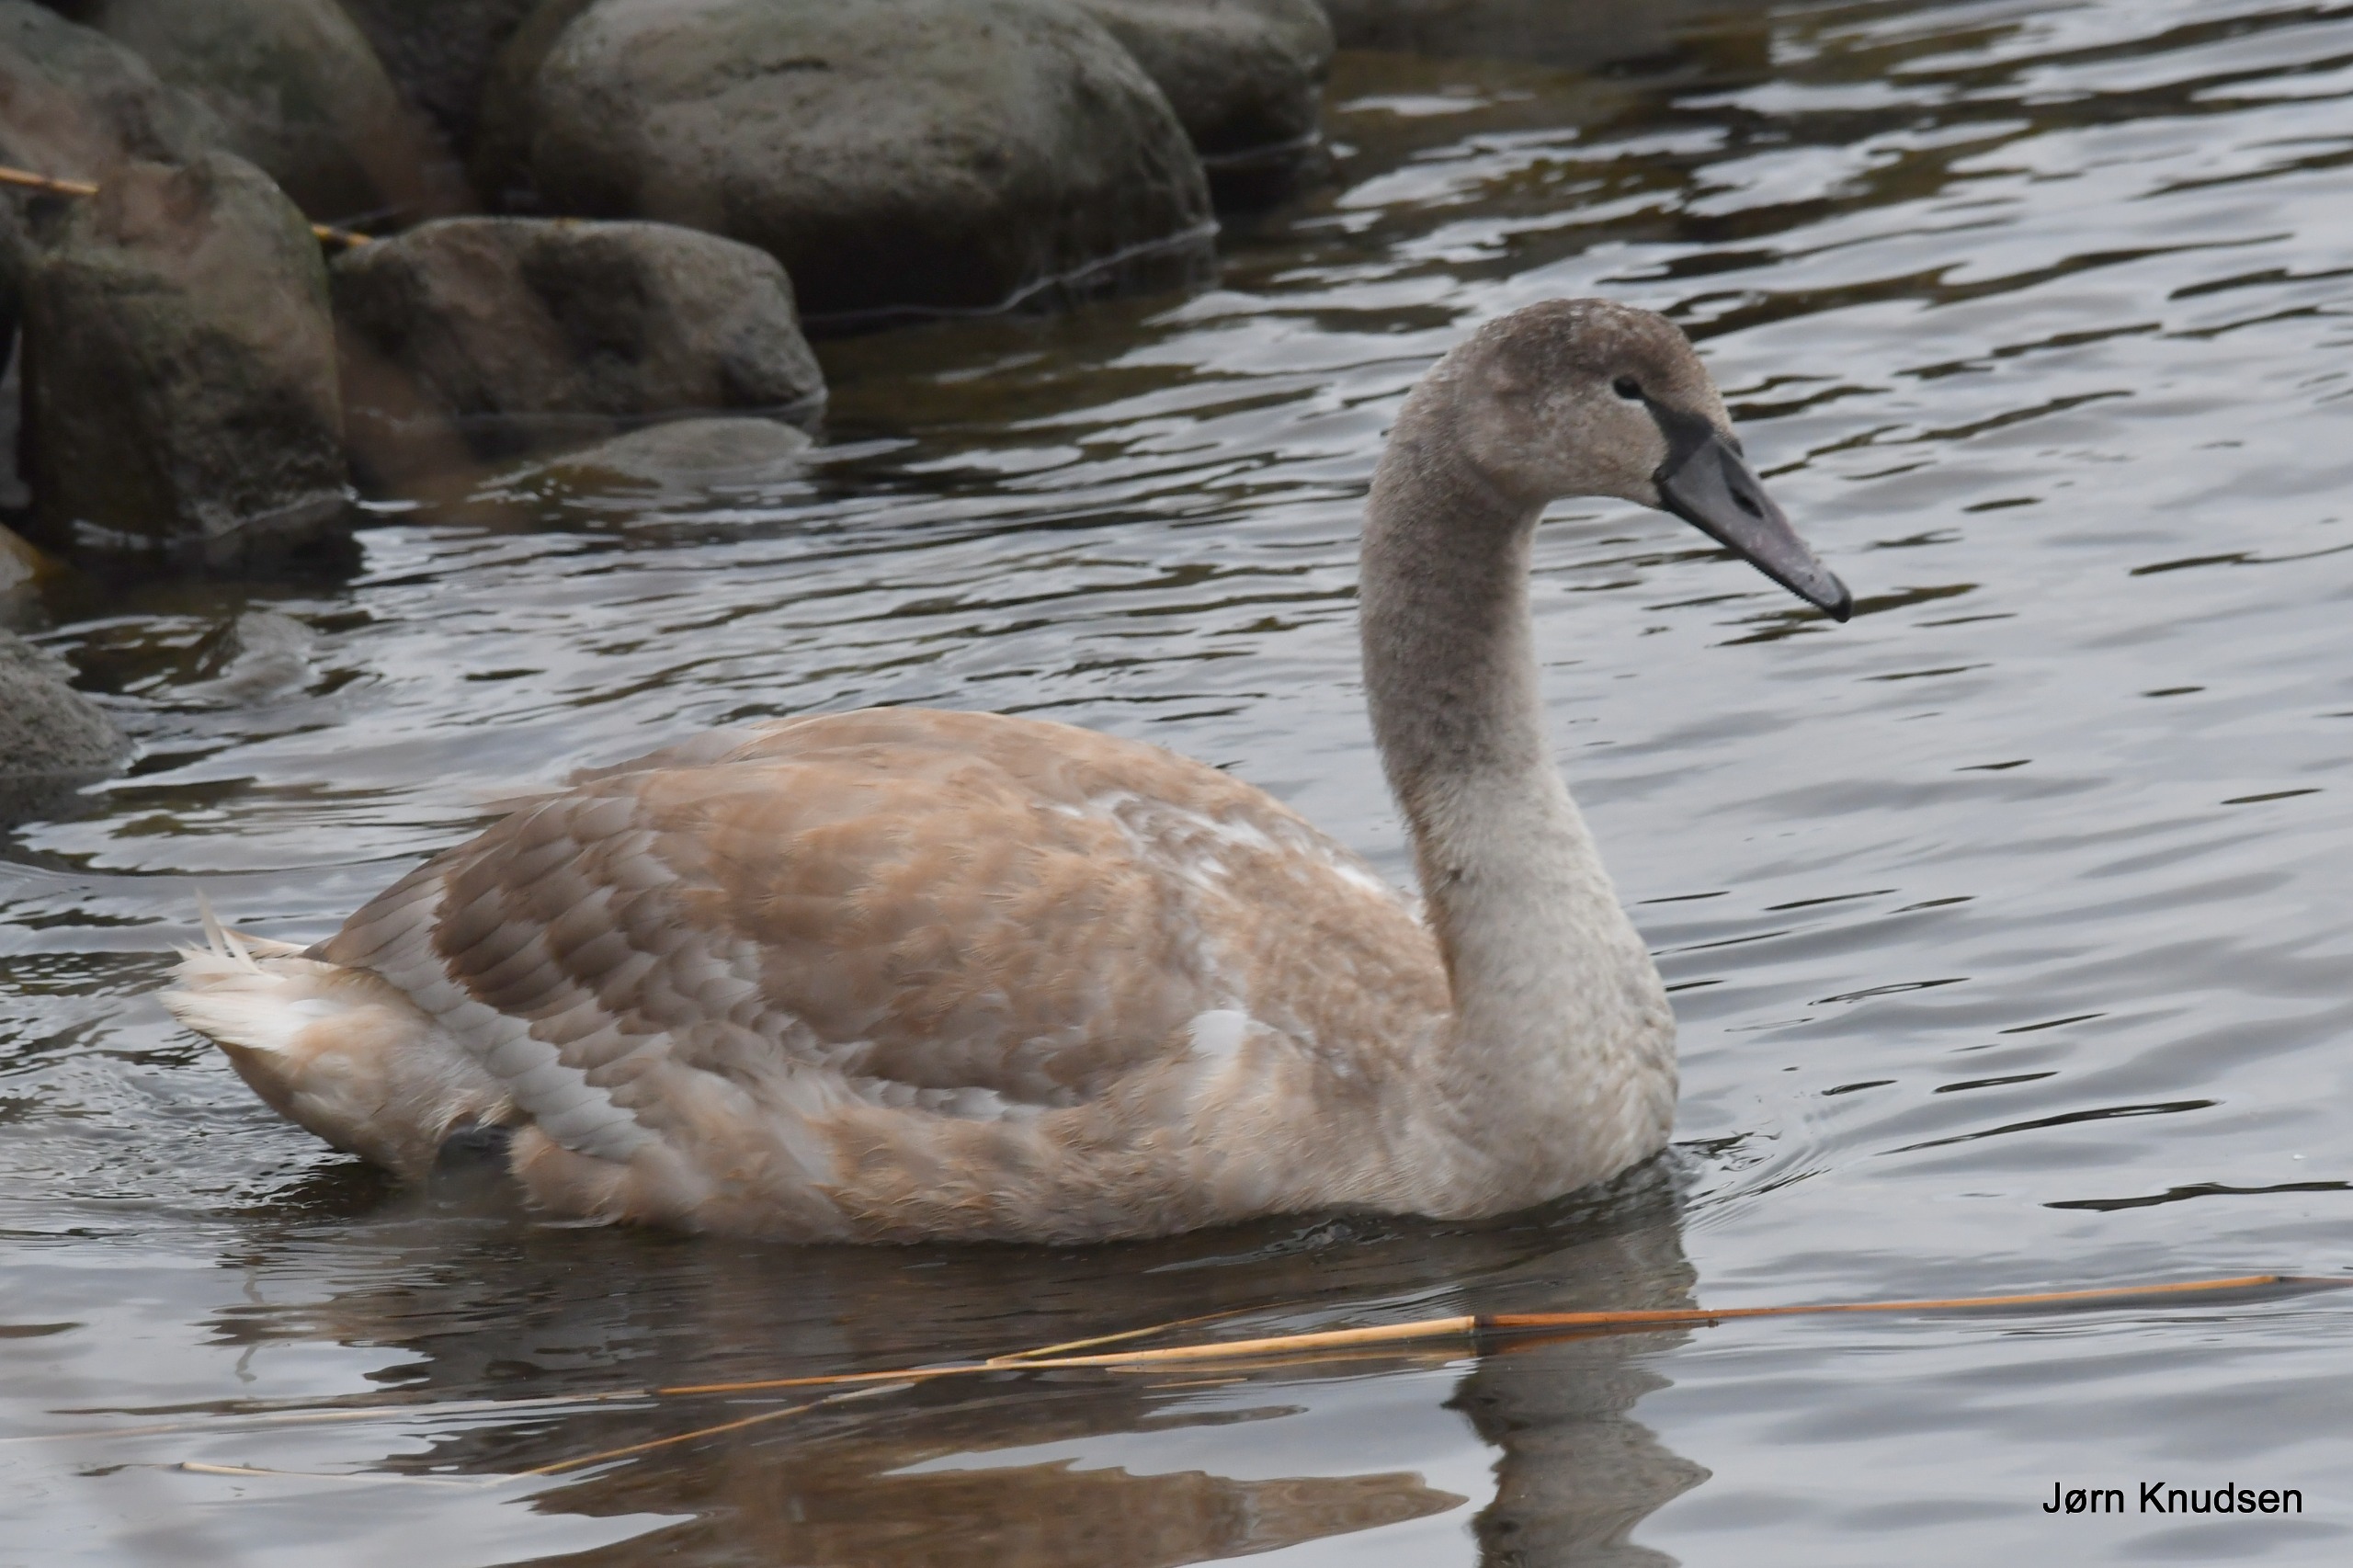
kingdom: Animalia
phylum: Chordata
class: Aves
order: Anseriformes
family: Anatidae
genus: Cygnus
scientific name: Cygnus olor
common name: Knopsvane
